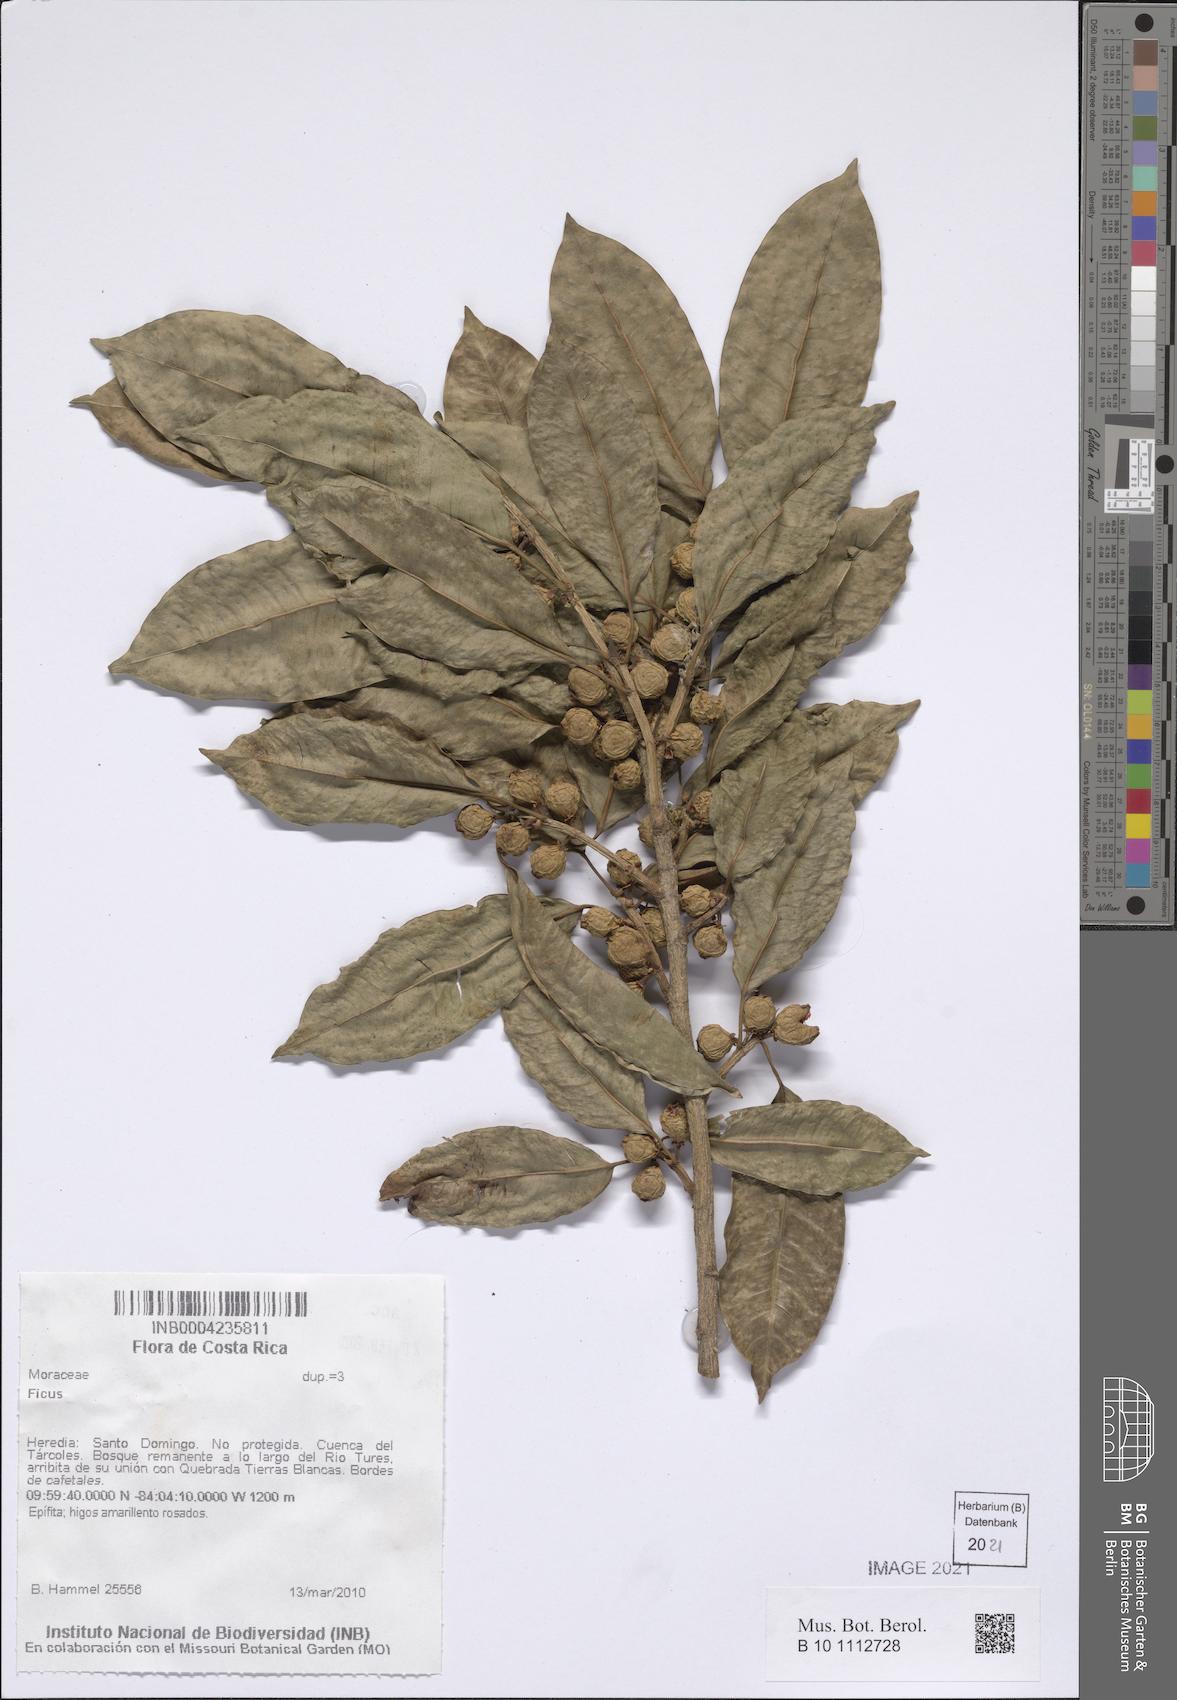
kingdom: Plantae
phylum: Tracheophyta
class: Magnoliopsida
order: Rosales
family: Moraceae
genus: Ficus
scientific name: Ficus
